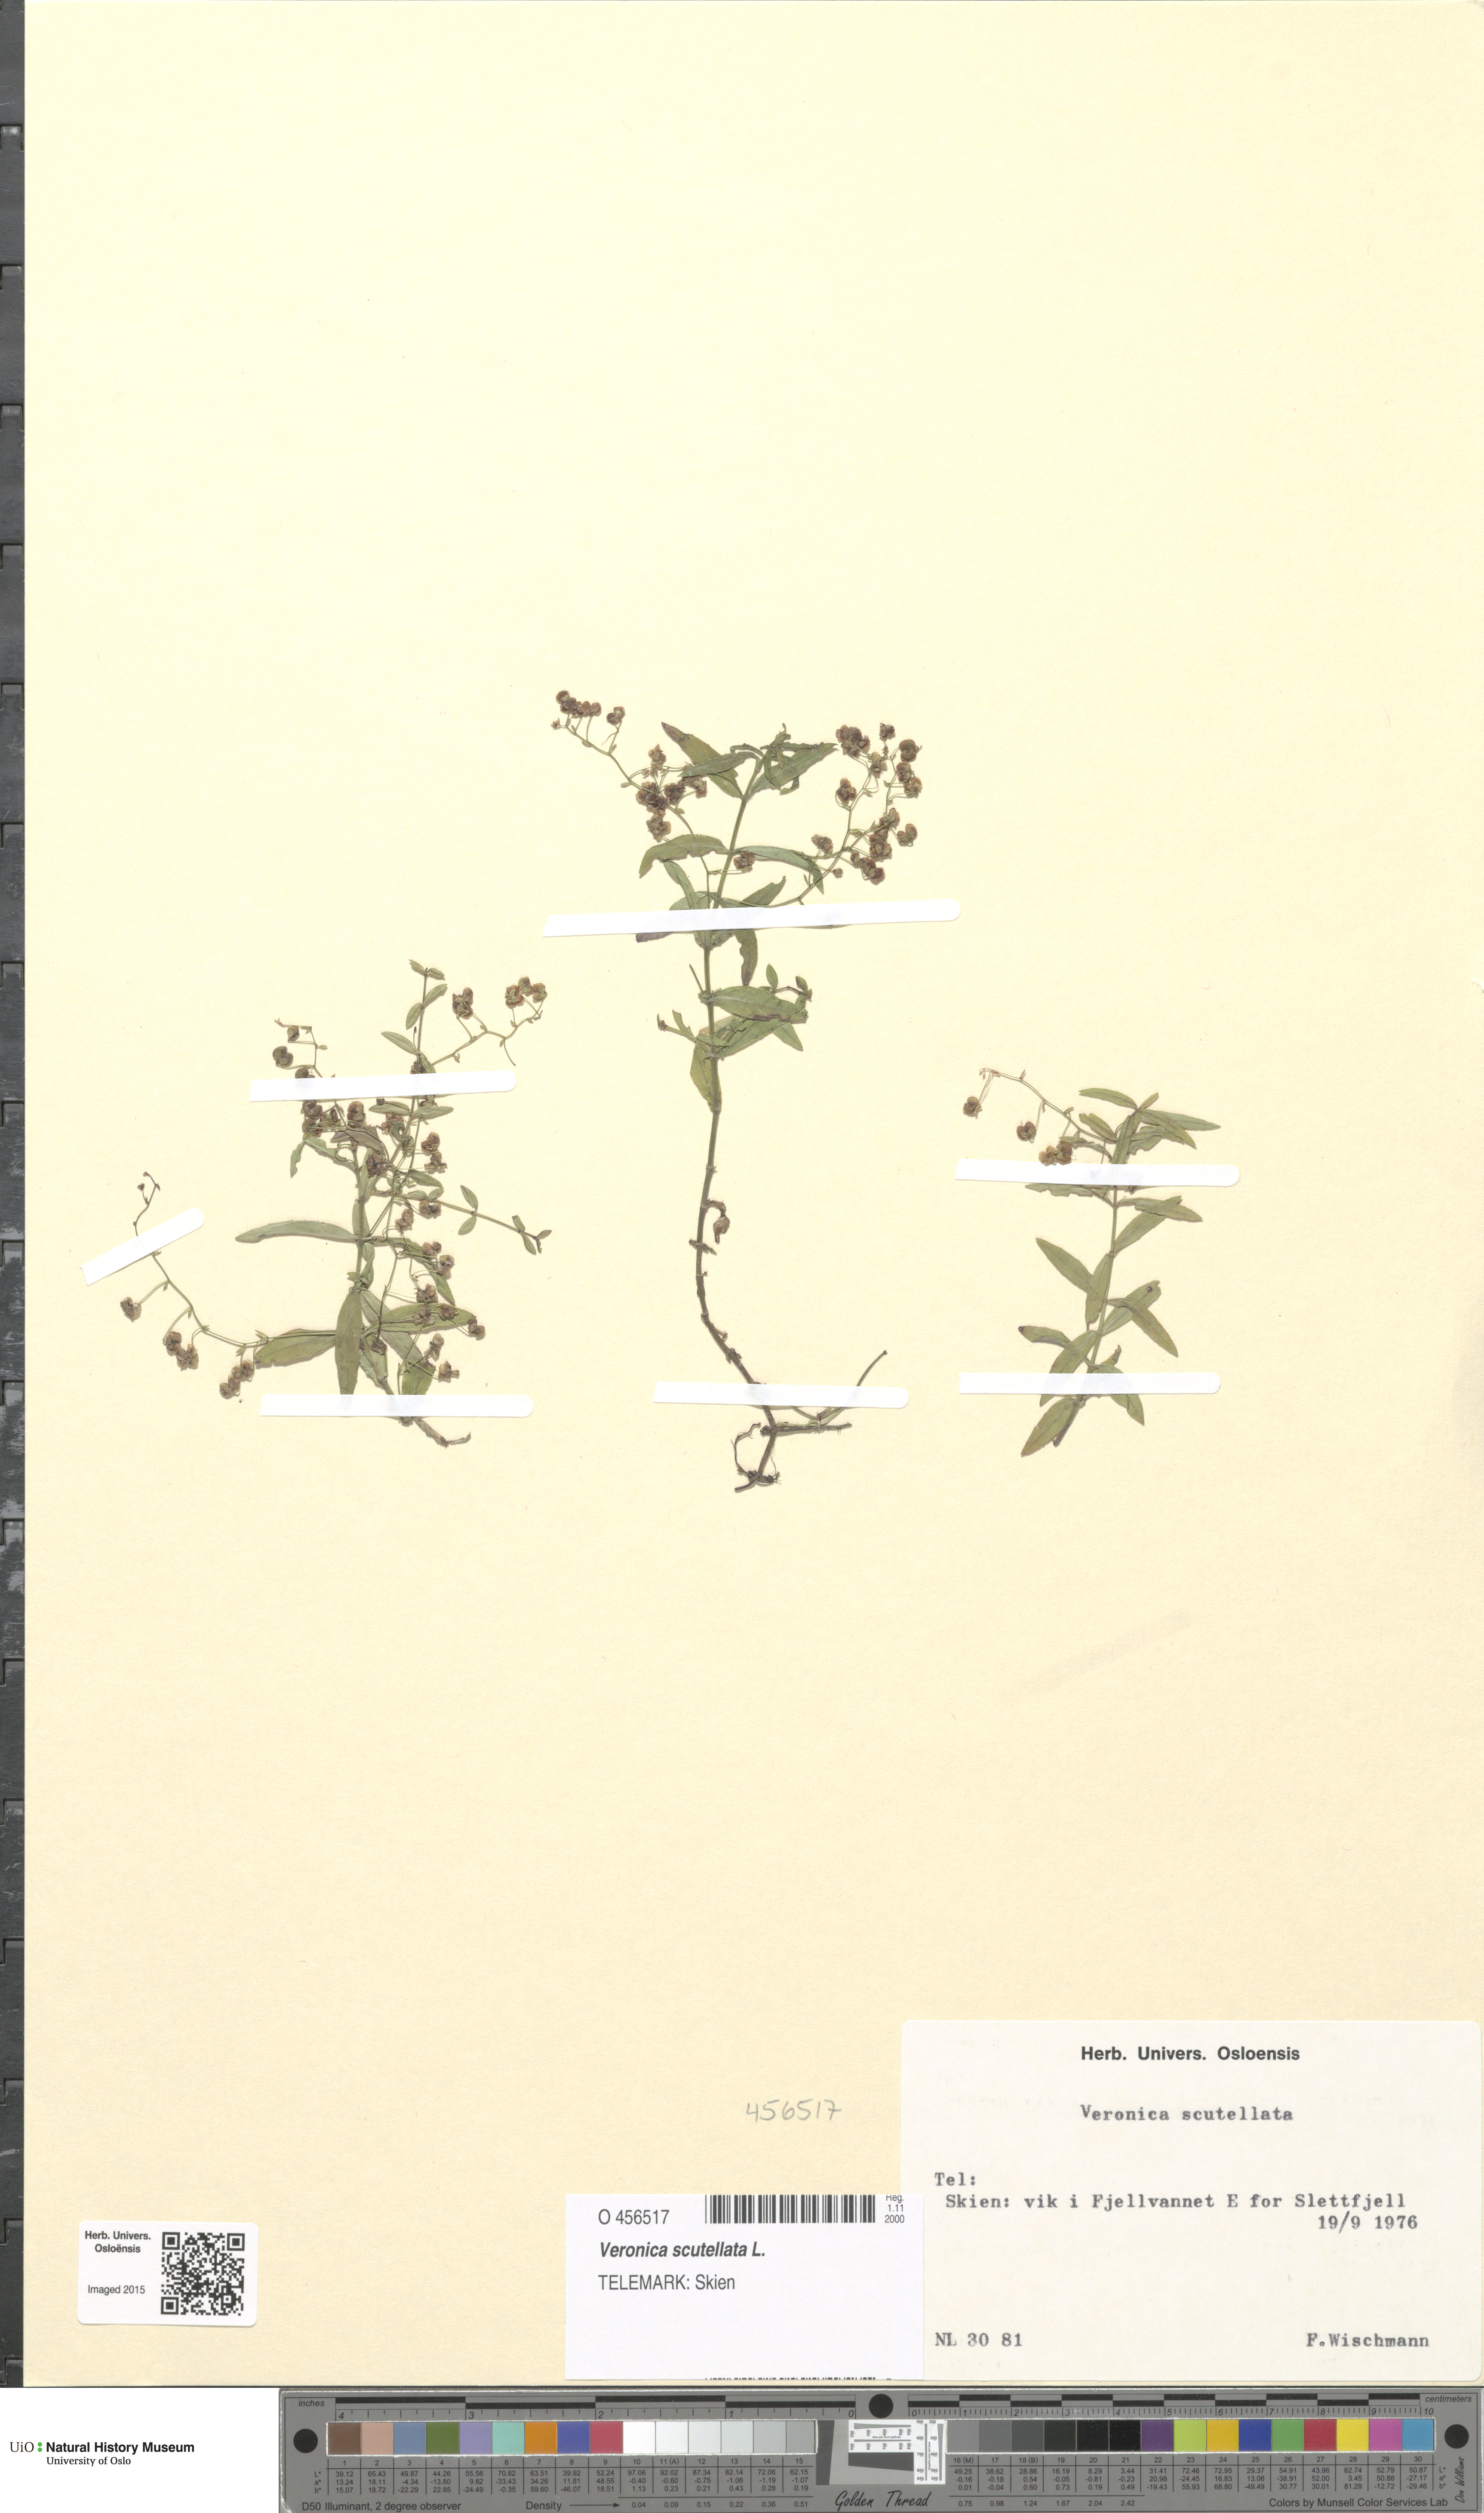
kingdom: Plantae
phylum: Tracheophyta
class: Magnoliopsida
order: Lamiales
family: Plantaginaceae
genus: Veronica
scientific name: Veronica scutellata
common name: Marsh speedwell
